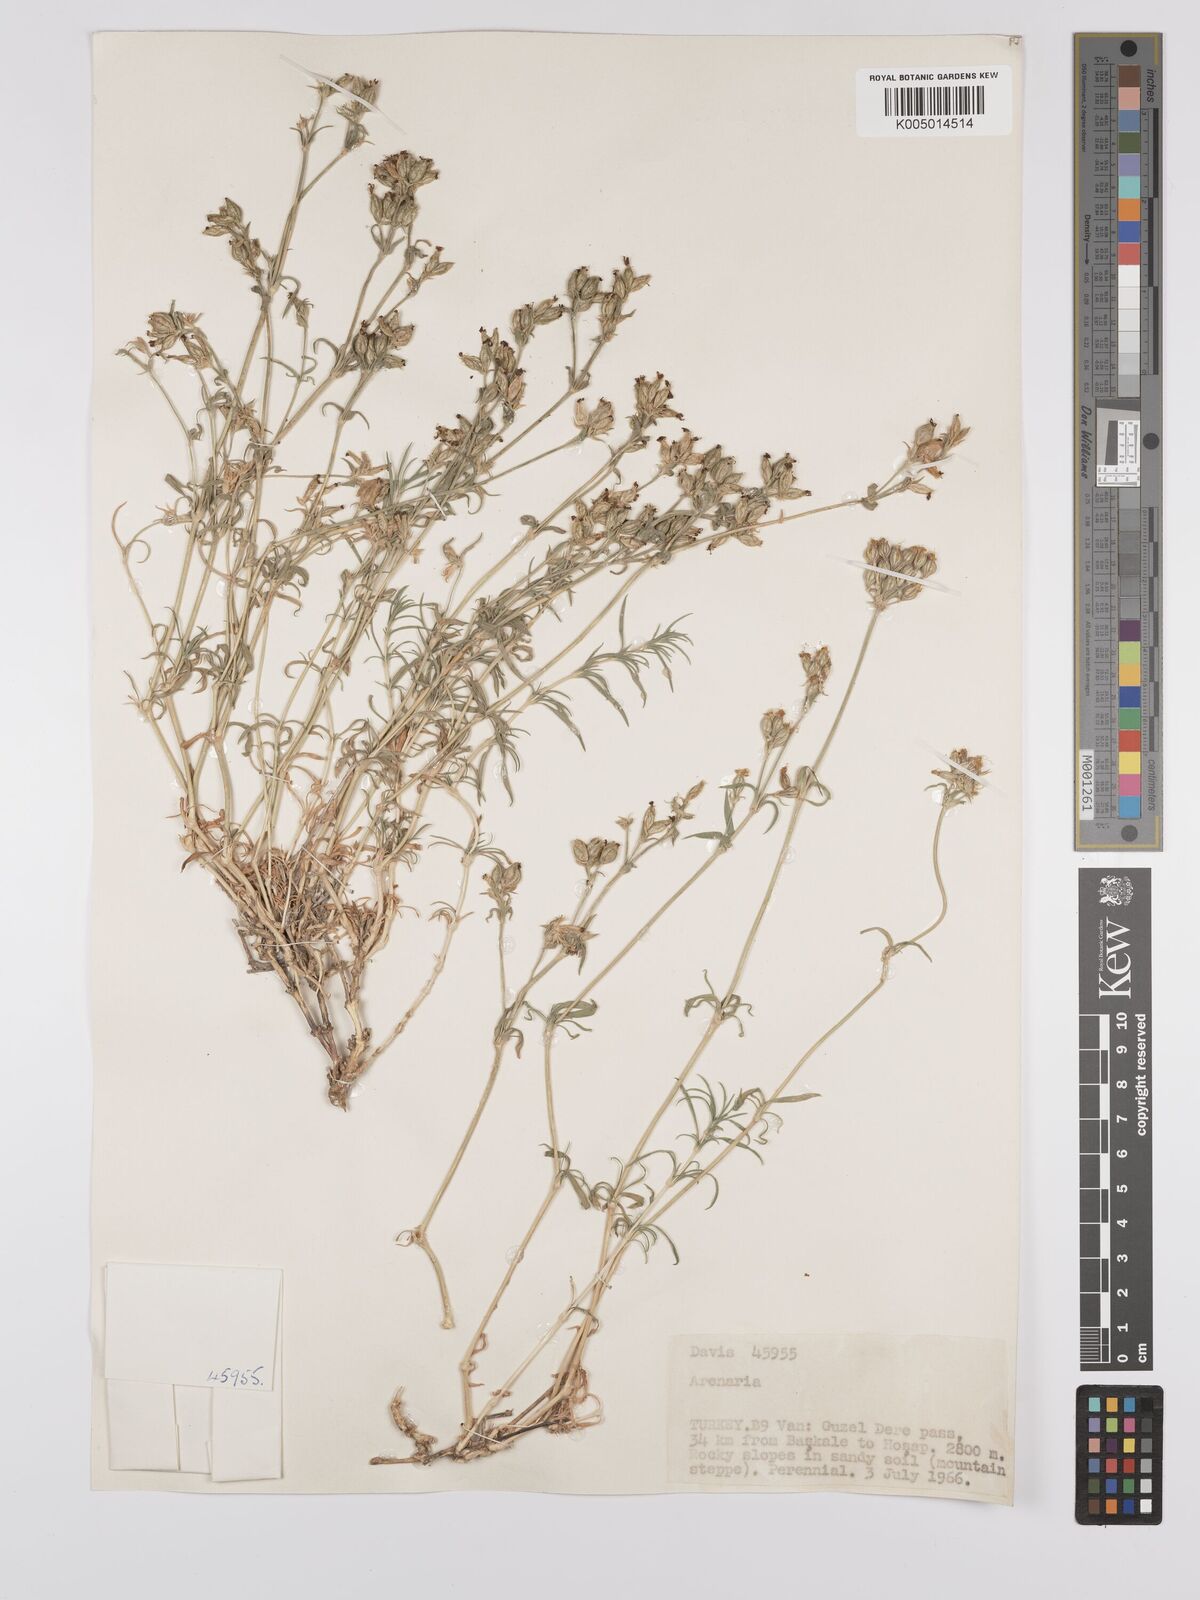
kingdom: Plantae
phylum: Tracheophyta
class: Magnoliopsida
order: Caryophyllales
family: Caryophyllaceae
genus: Silene
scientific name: Silene
